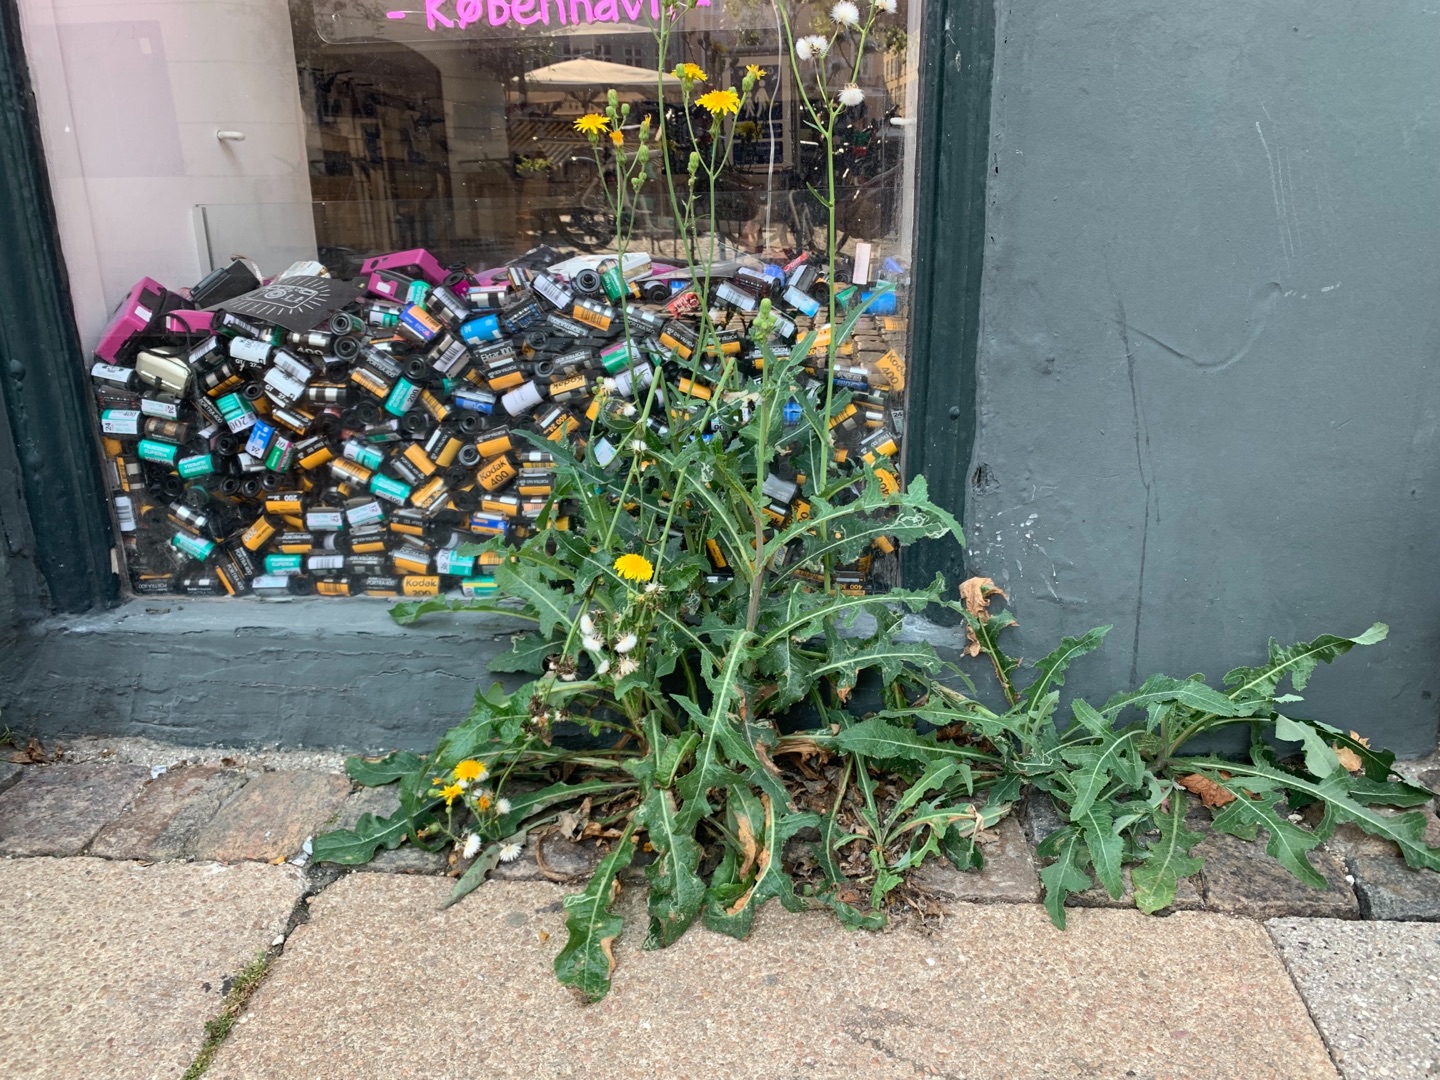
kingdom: Plantae
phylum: Tracheophyta
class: Magnoliopsida
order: Asterales
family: Asteraceae
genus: Sonchus
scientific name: Sonchus arvensis
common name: Ager-svinemælk
